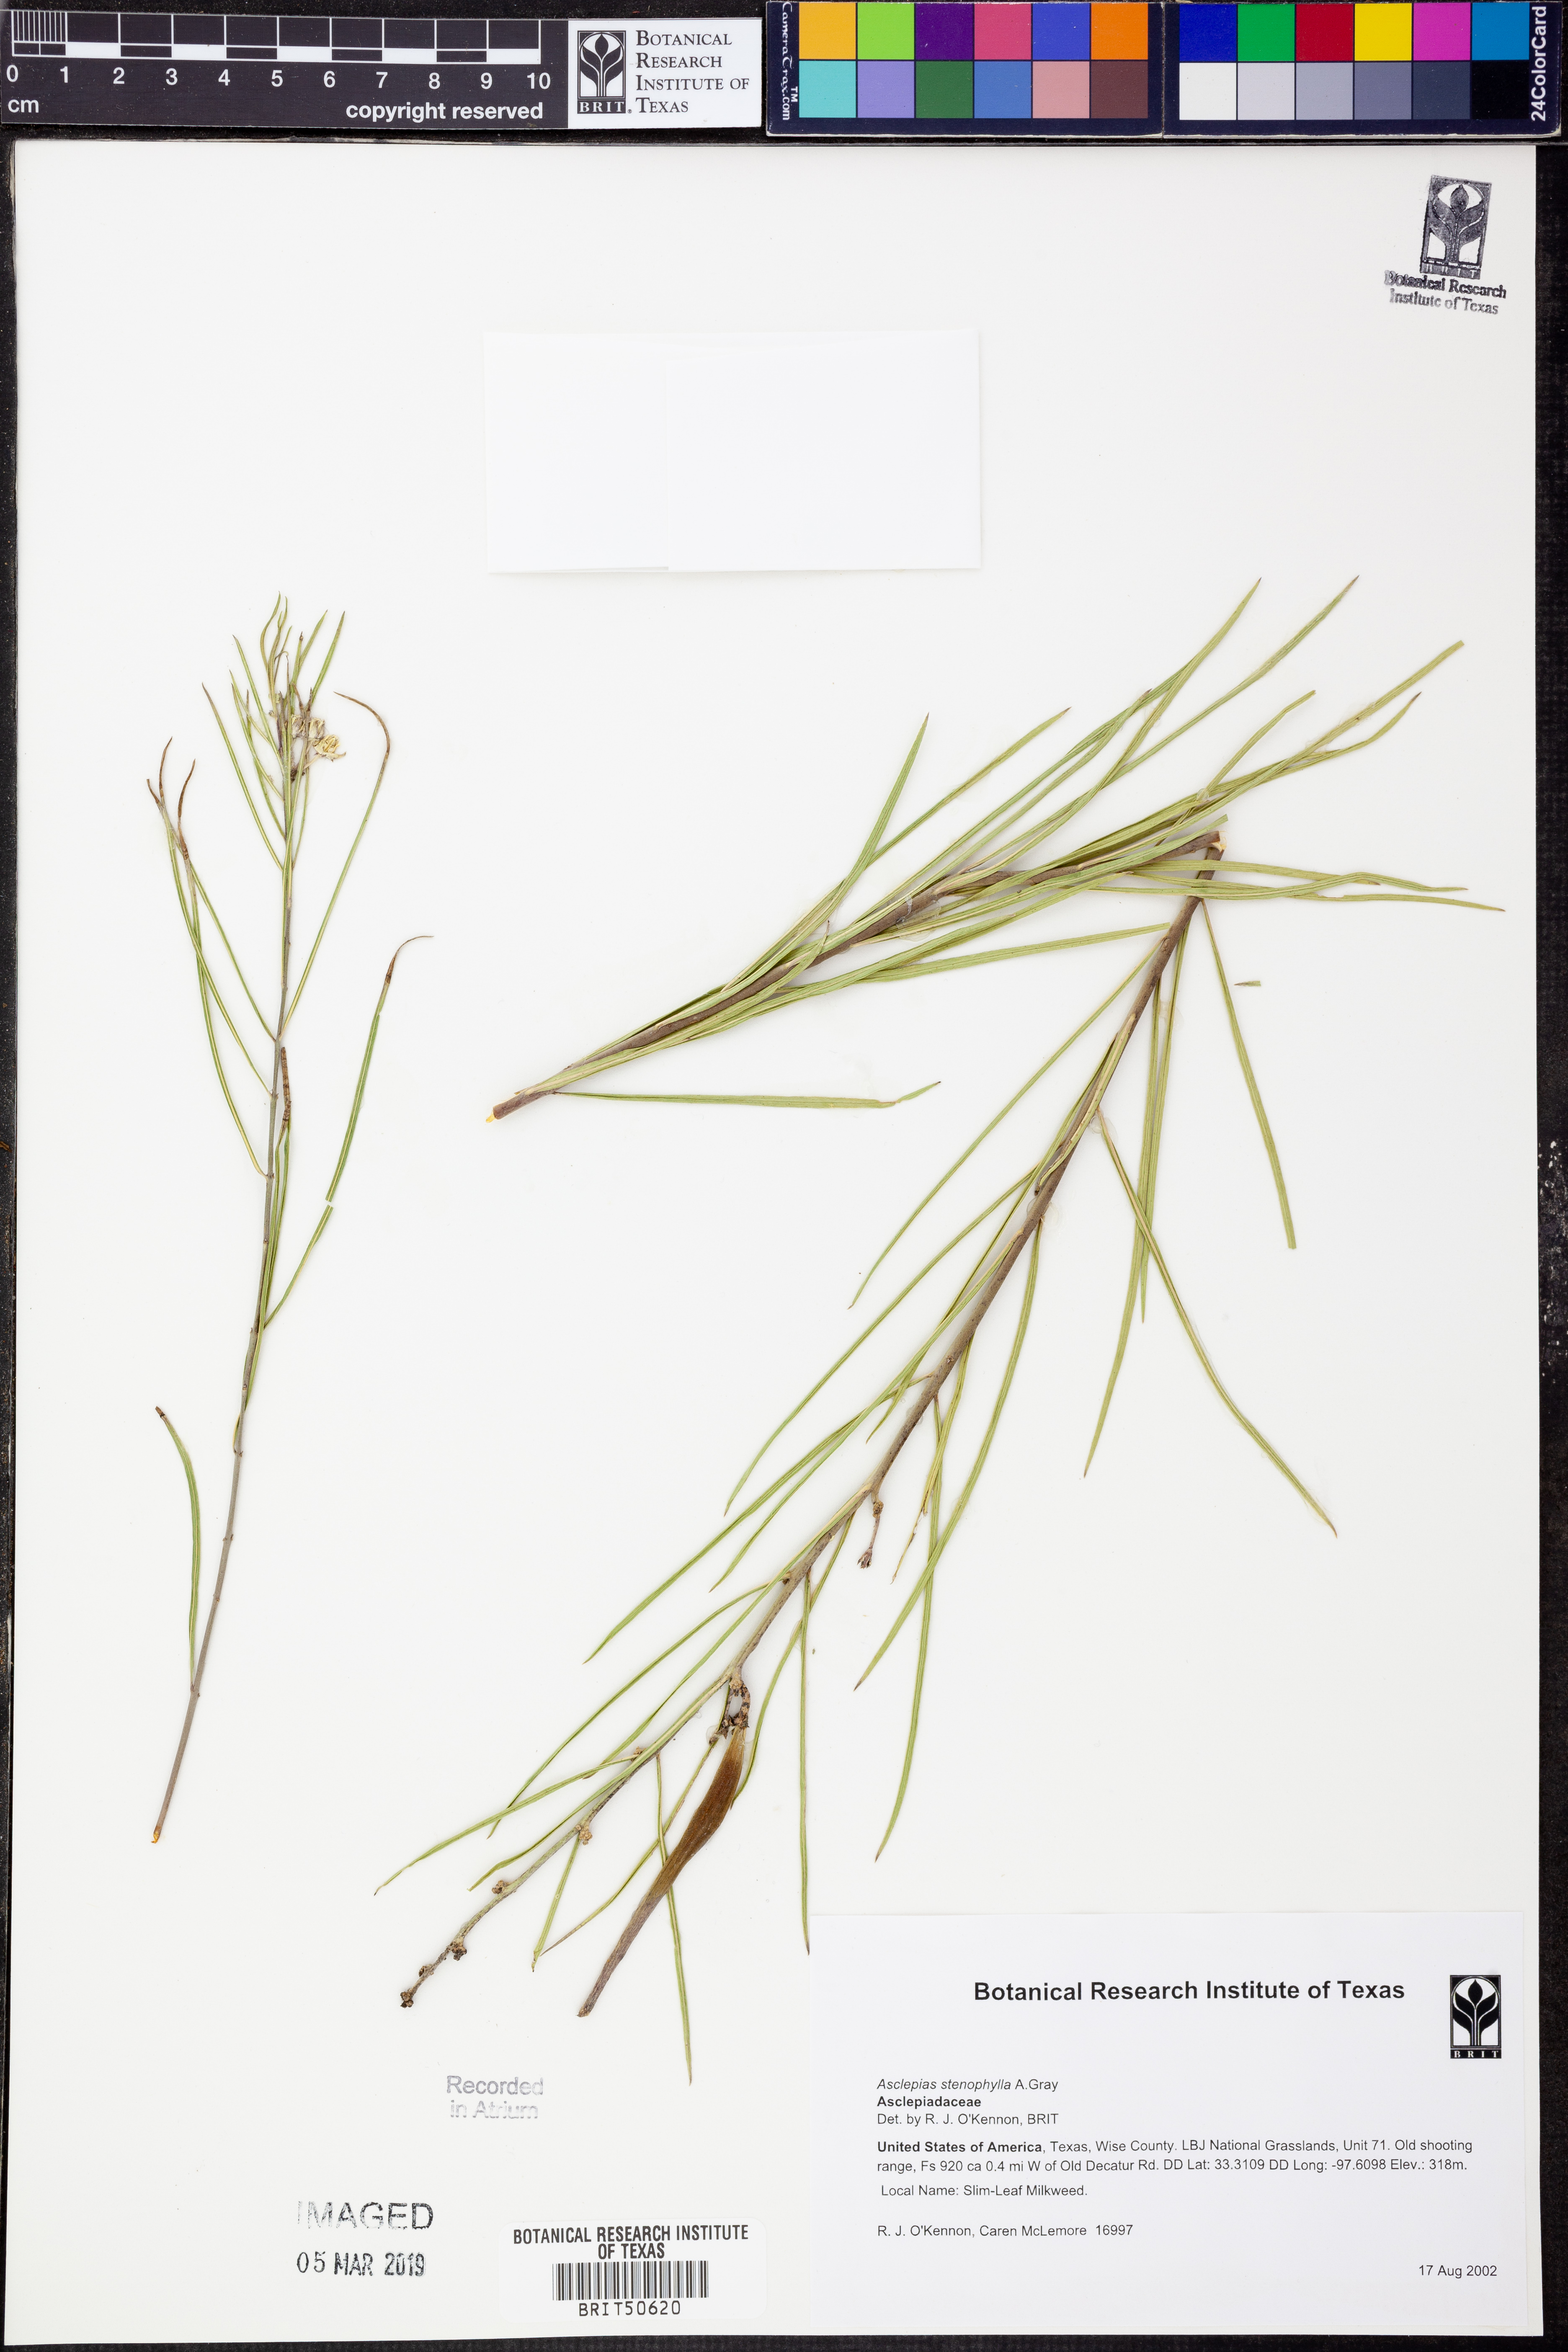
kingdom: Plantae
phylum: Tracheophyta
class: Magnoliopsida
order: Gentianales
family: Apocynaceae
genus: Asclepias
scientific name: Asclepias stenophylla
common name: Narrow-leaf milkweed
